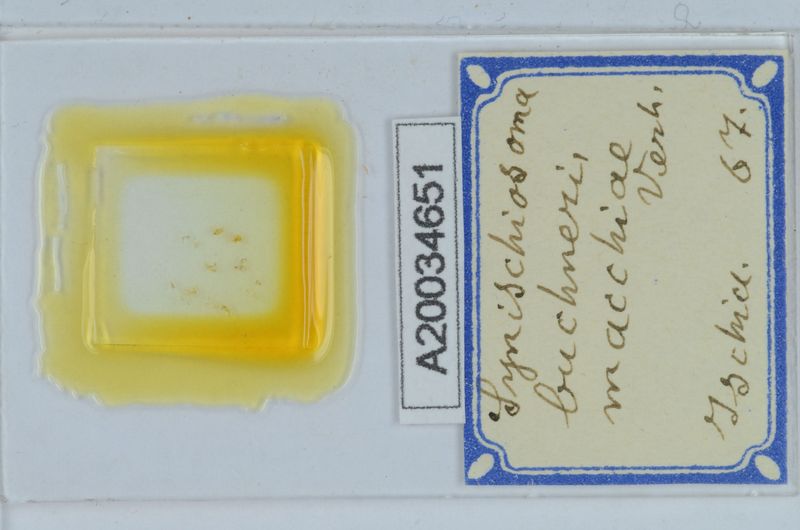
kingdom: Animalia
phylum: Arthropoda
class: Diplopoda
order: Chordeumatida
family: Craspedosomatidae
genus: Synischiosoma
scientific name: Synischiosoma buchneri
